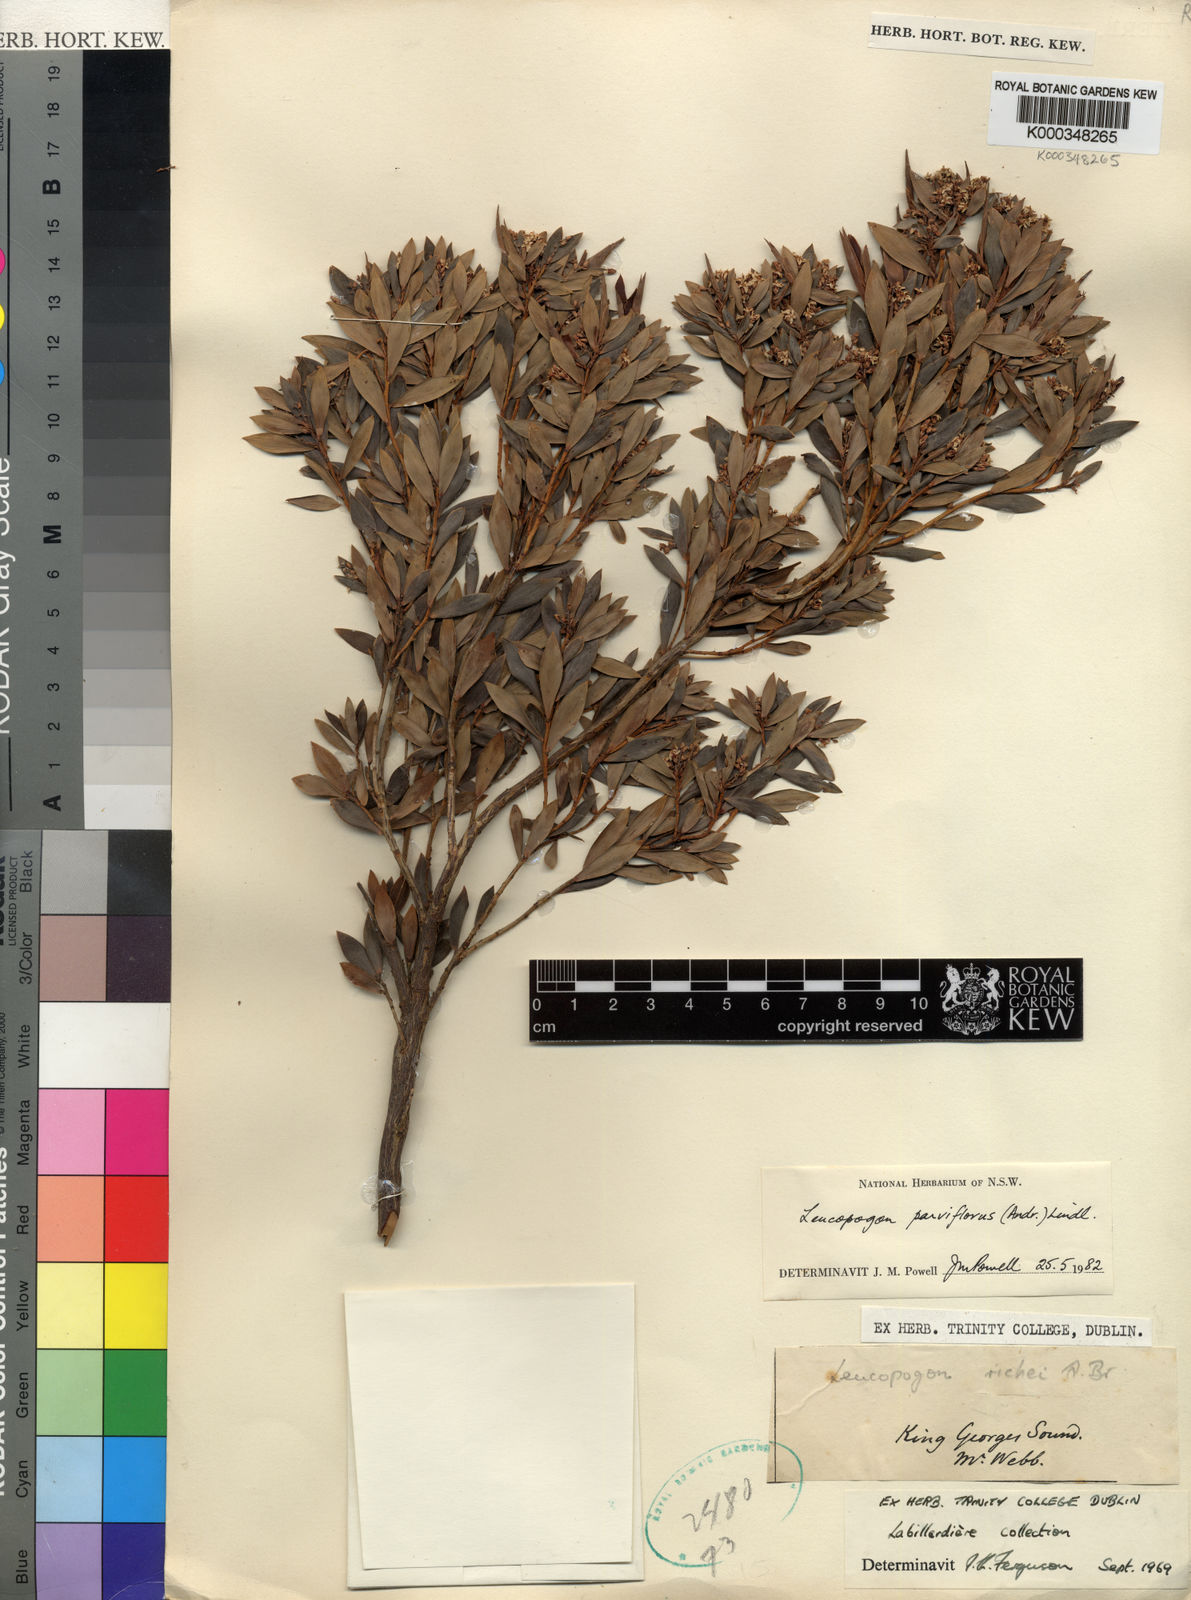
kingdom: Plantae
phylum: Tracheophyta
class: Magnoliopsida
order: Ericales
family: Ericaceae
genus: Leptecophylla
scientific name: Leptecophylla parvifolia
